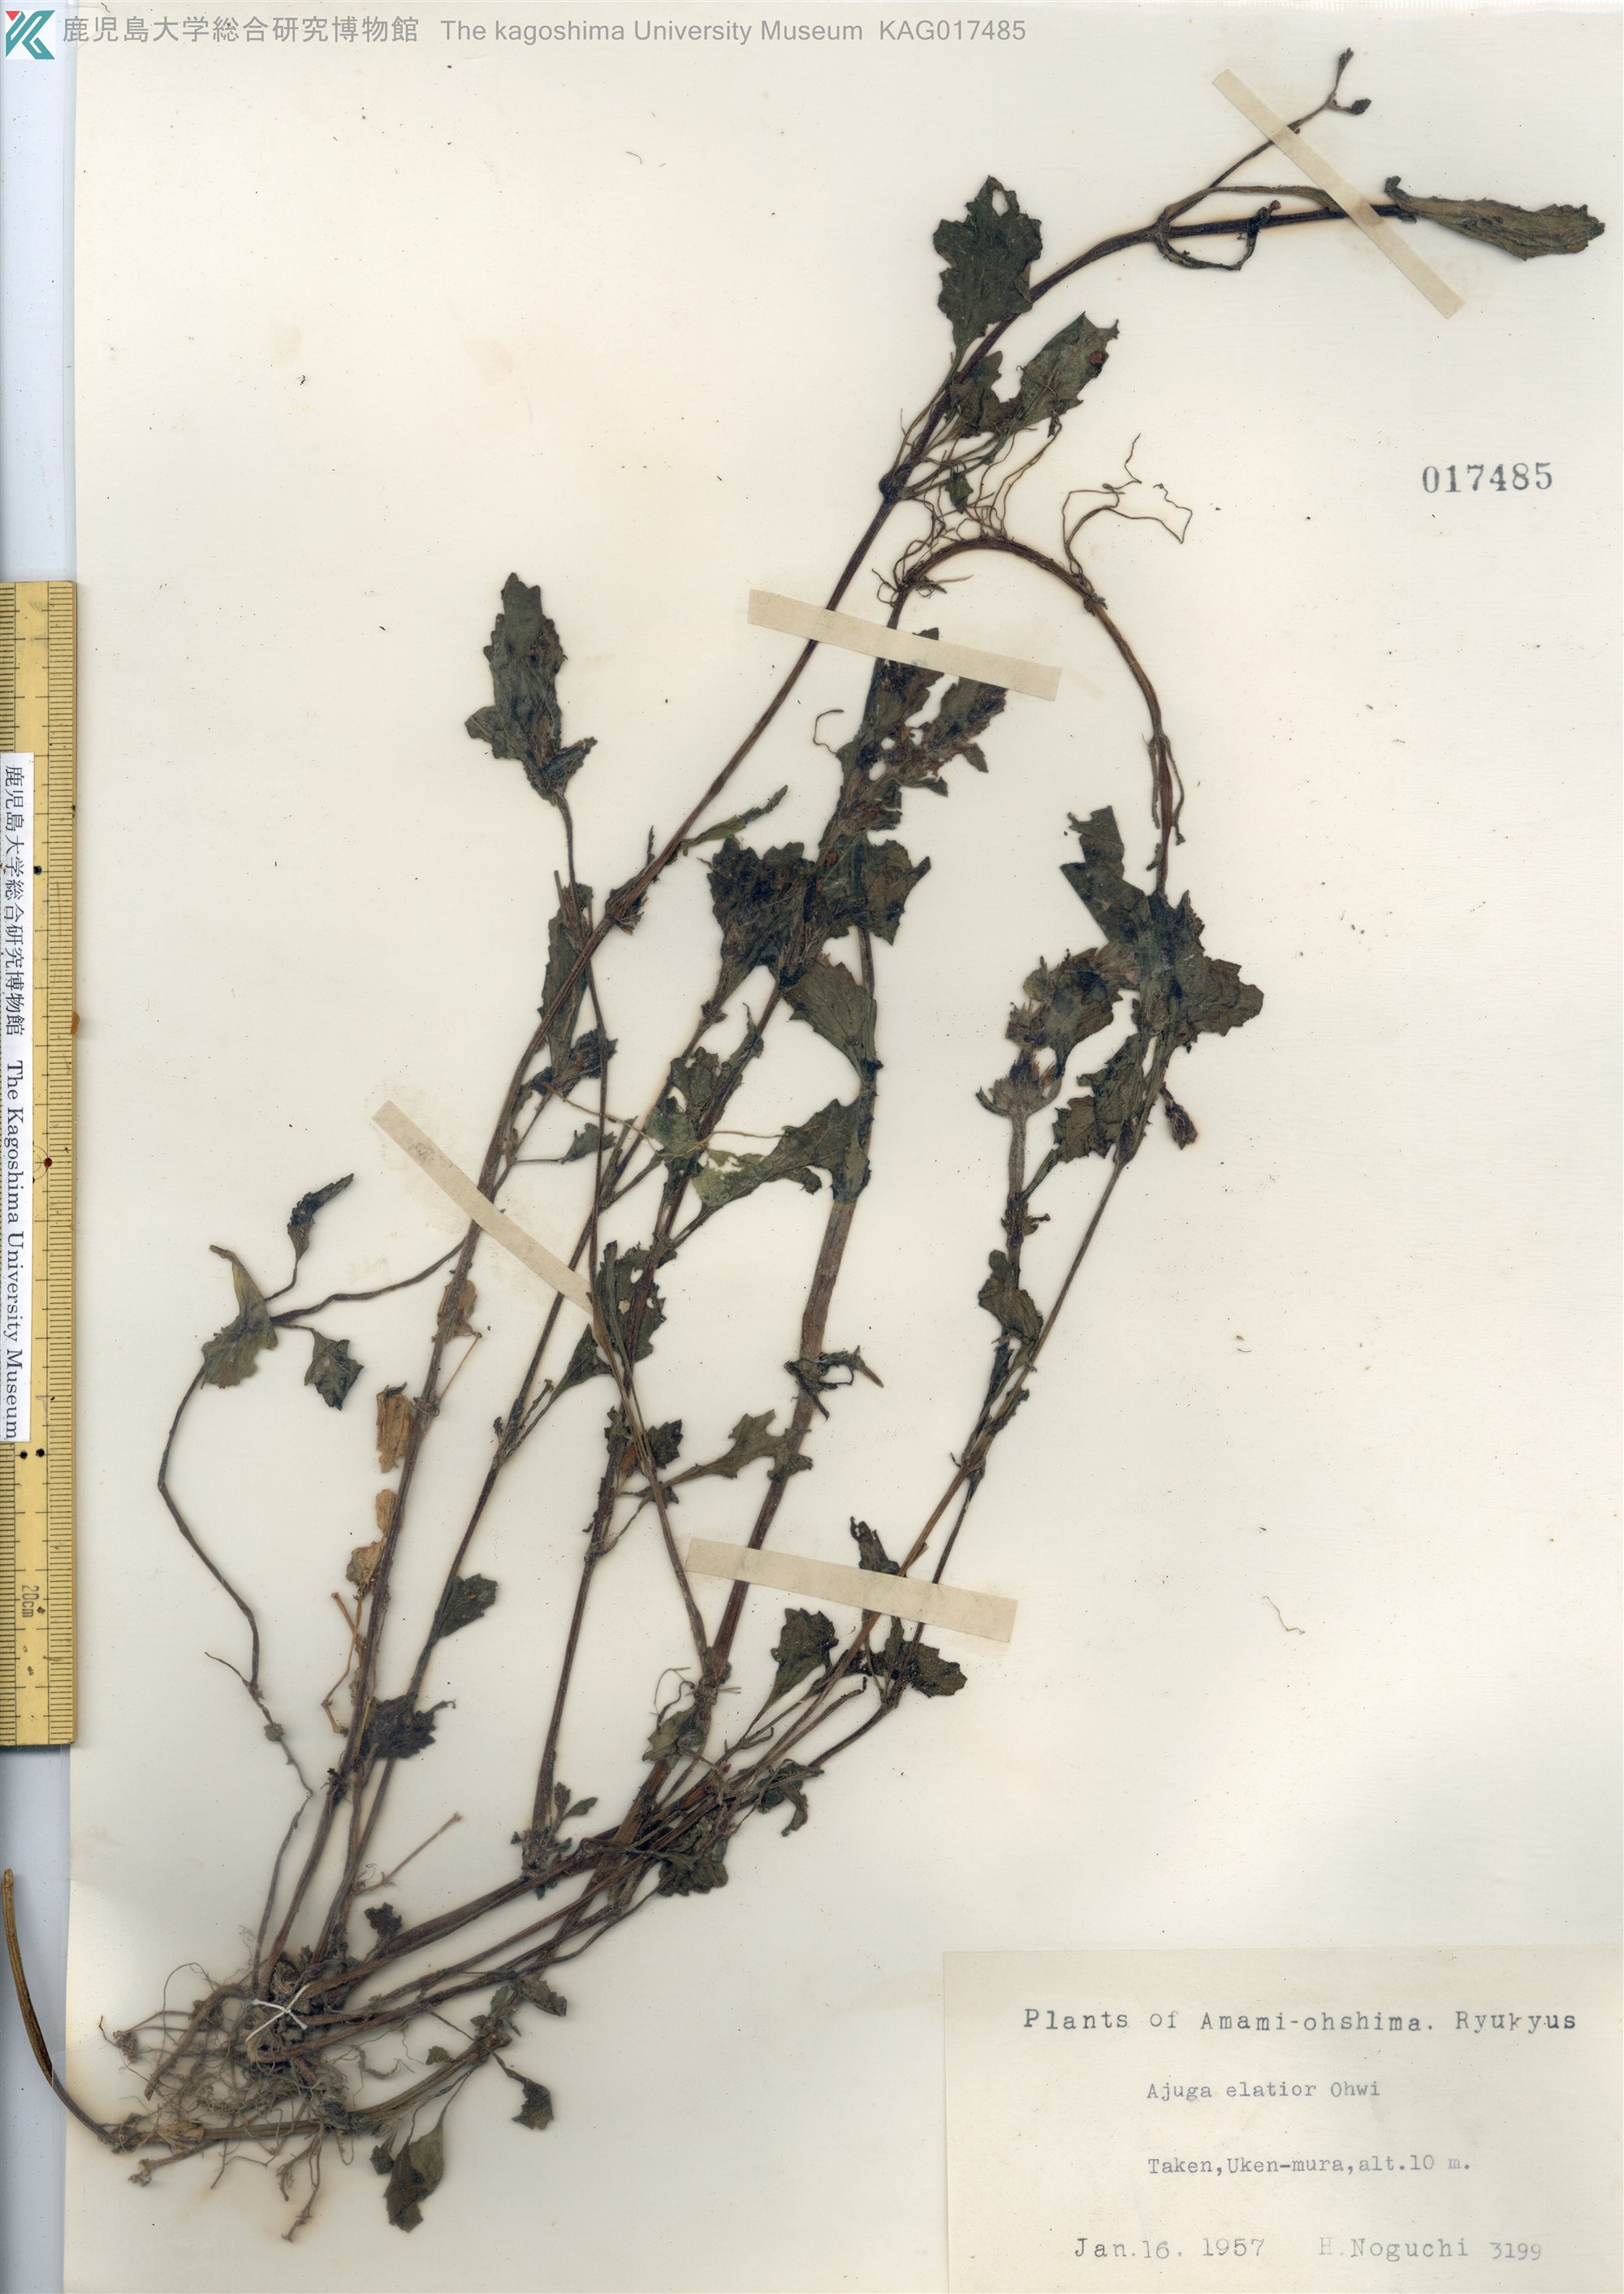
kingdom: Plantae
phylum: Tracheophyta
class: Magnoliopsida
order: Lamiales
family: Lamiaceae
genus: Ajuga
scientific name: Ajuga dictyocarpa
